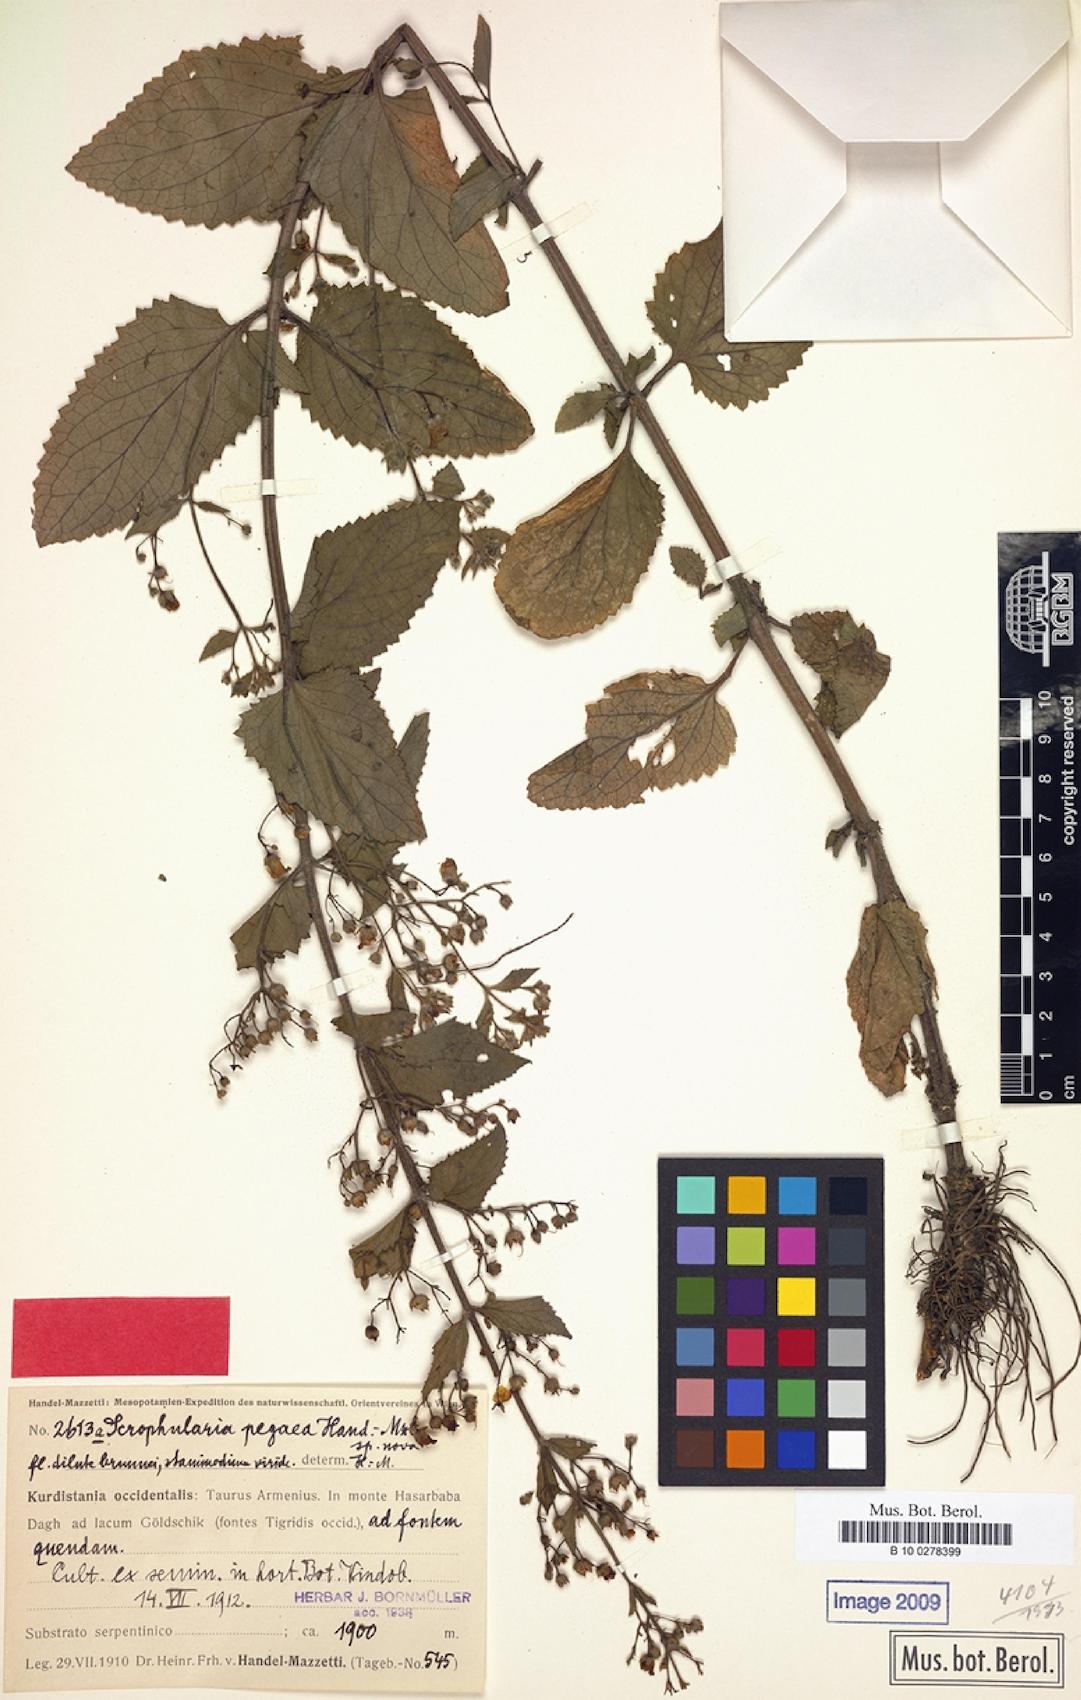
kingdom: Plantae
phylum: Tracheophyta
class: Magnoliopsida
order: Lamiales
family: Scrophulariaceae
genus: Scrophularia
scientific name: Scrophularia pegaea
